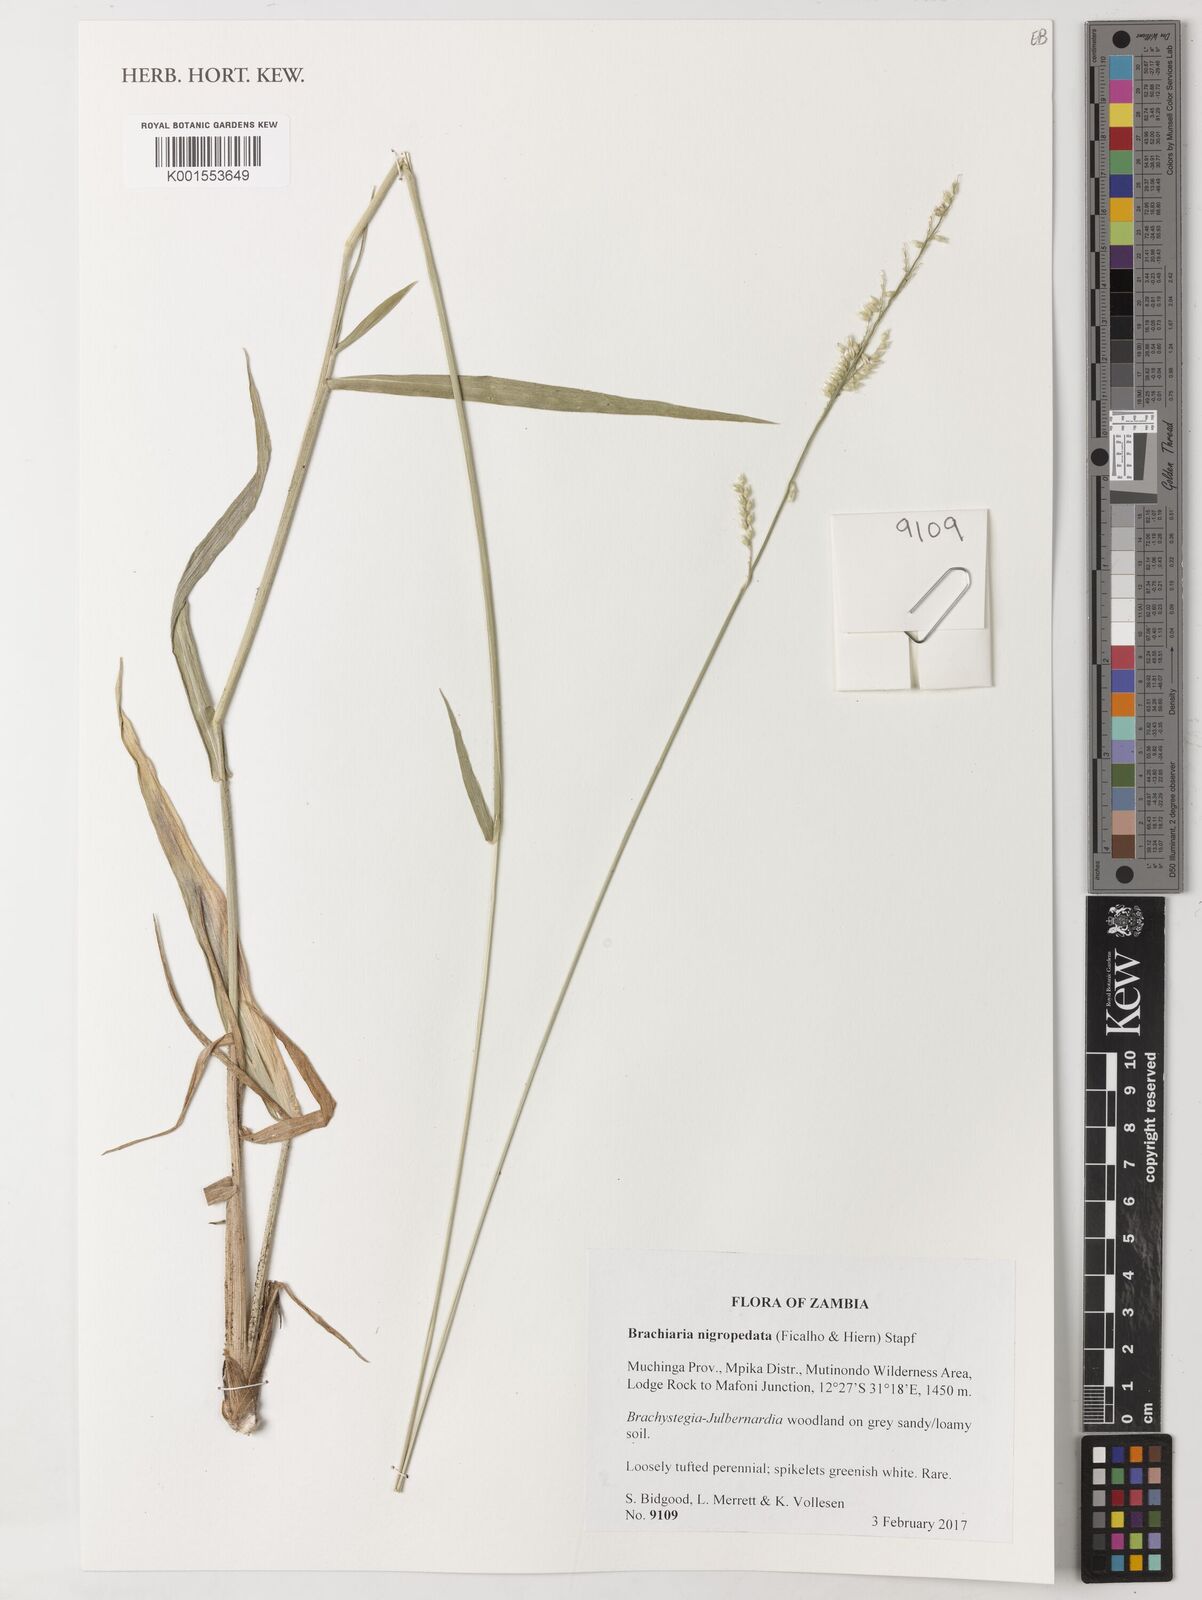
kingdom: Plantae
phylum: Tracheophyta
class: Liliopsida
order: Poales
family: Poaceae
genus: Urochloa
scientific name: Urochloa nigropedata
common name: Spotted signal grass
